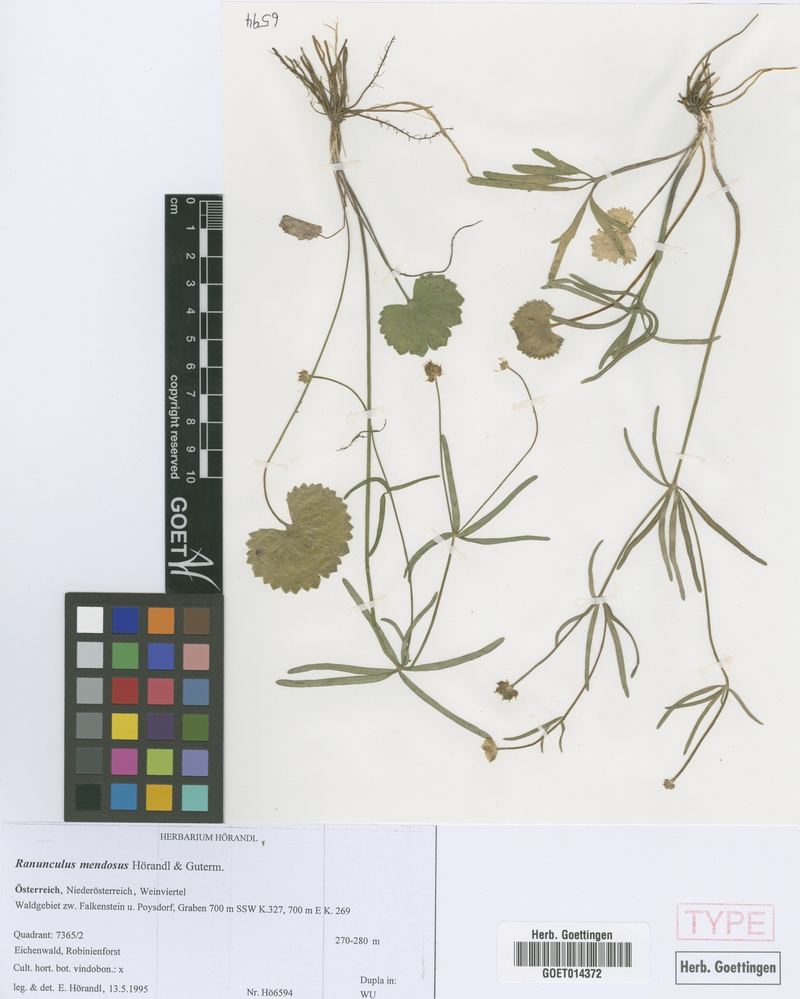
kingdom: Plantae
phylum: Tracheophyta
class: Magnoliopsida
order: Ranunculales
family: Ranunculaceae
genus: Ranunculus
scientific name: Ranunculus mendosus
